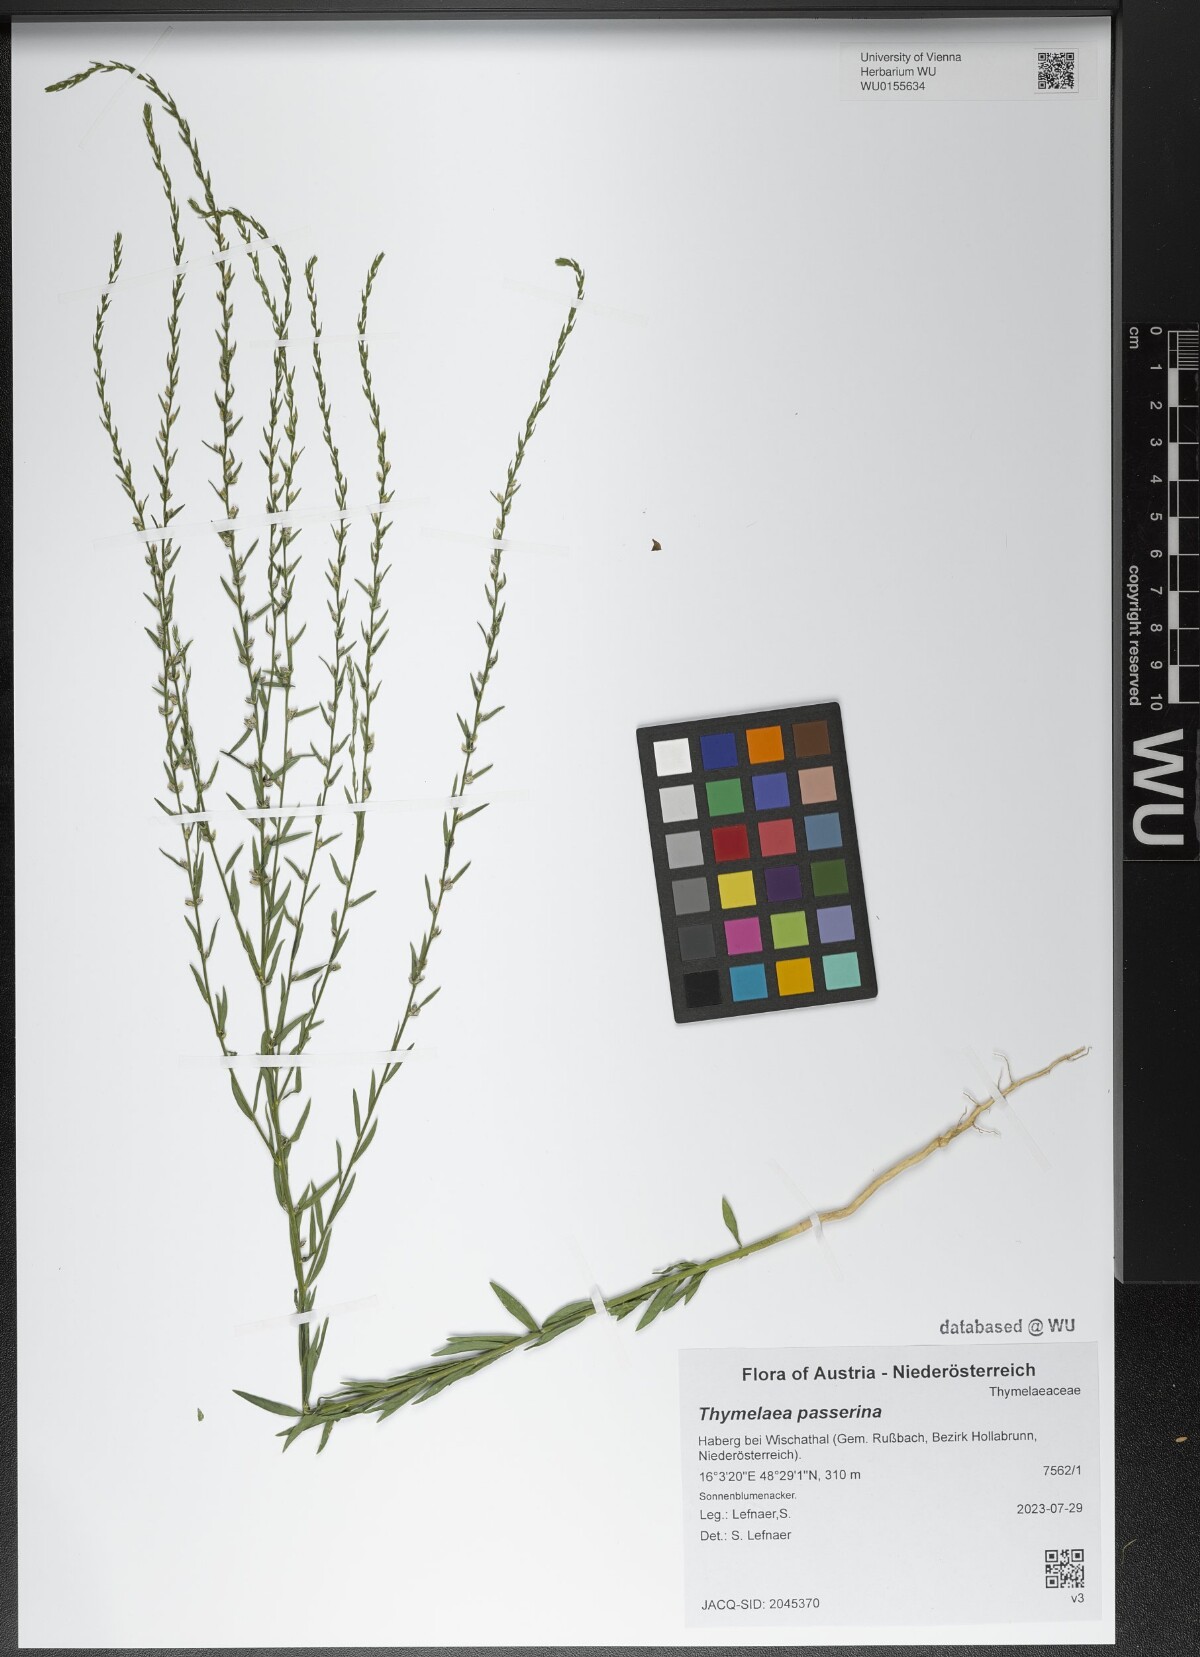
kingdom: Plantae
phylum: Tracheophyta
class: Magnoliopsida
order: Malvales
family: Thymelaeaceae
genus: Thymelaea
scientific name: Thymelaea passerina
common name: Annual thymelaea
